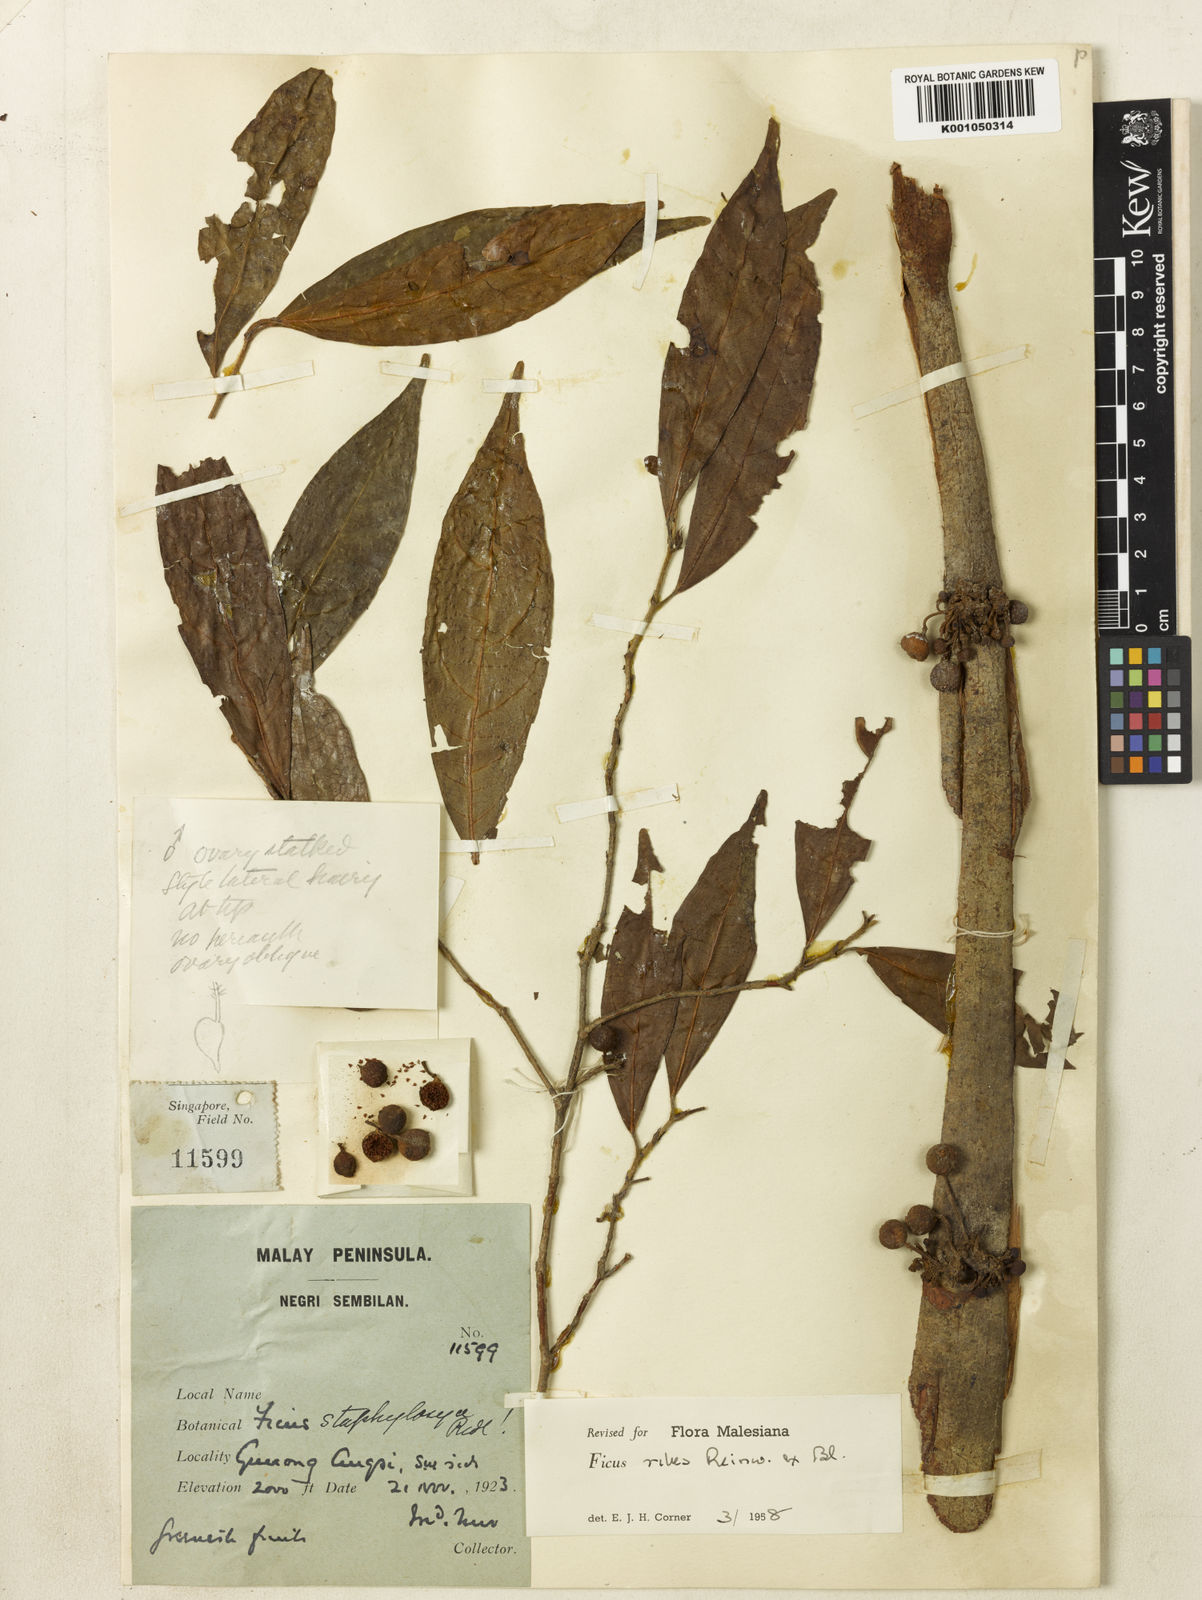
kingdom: Plantae
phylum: Tracheophyta
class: Magnoliopsida
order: Rosales
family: Moraceae
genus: Ficus
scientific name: Ficus ribes
